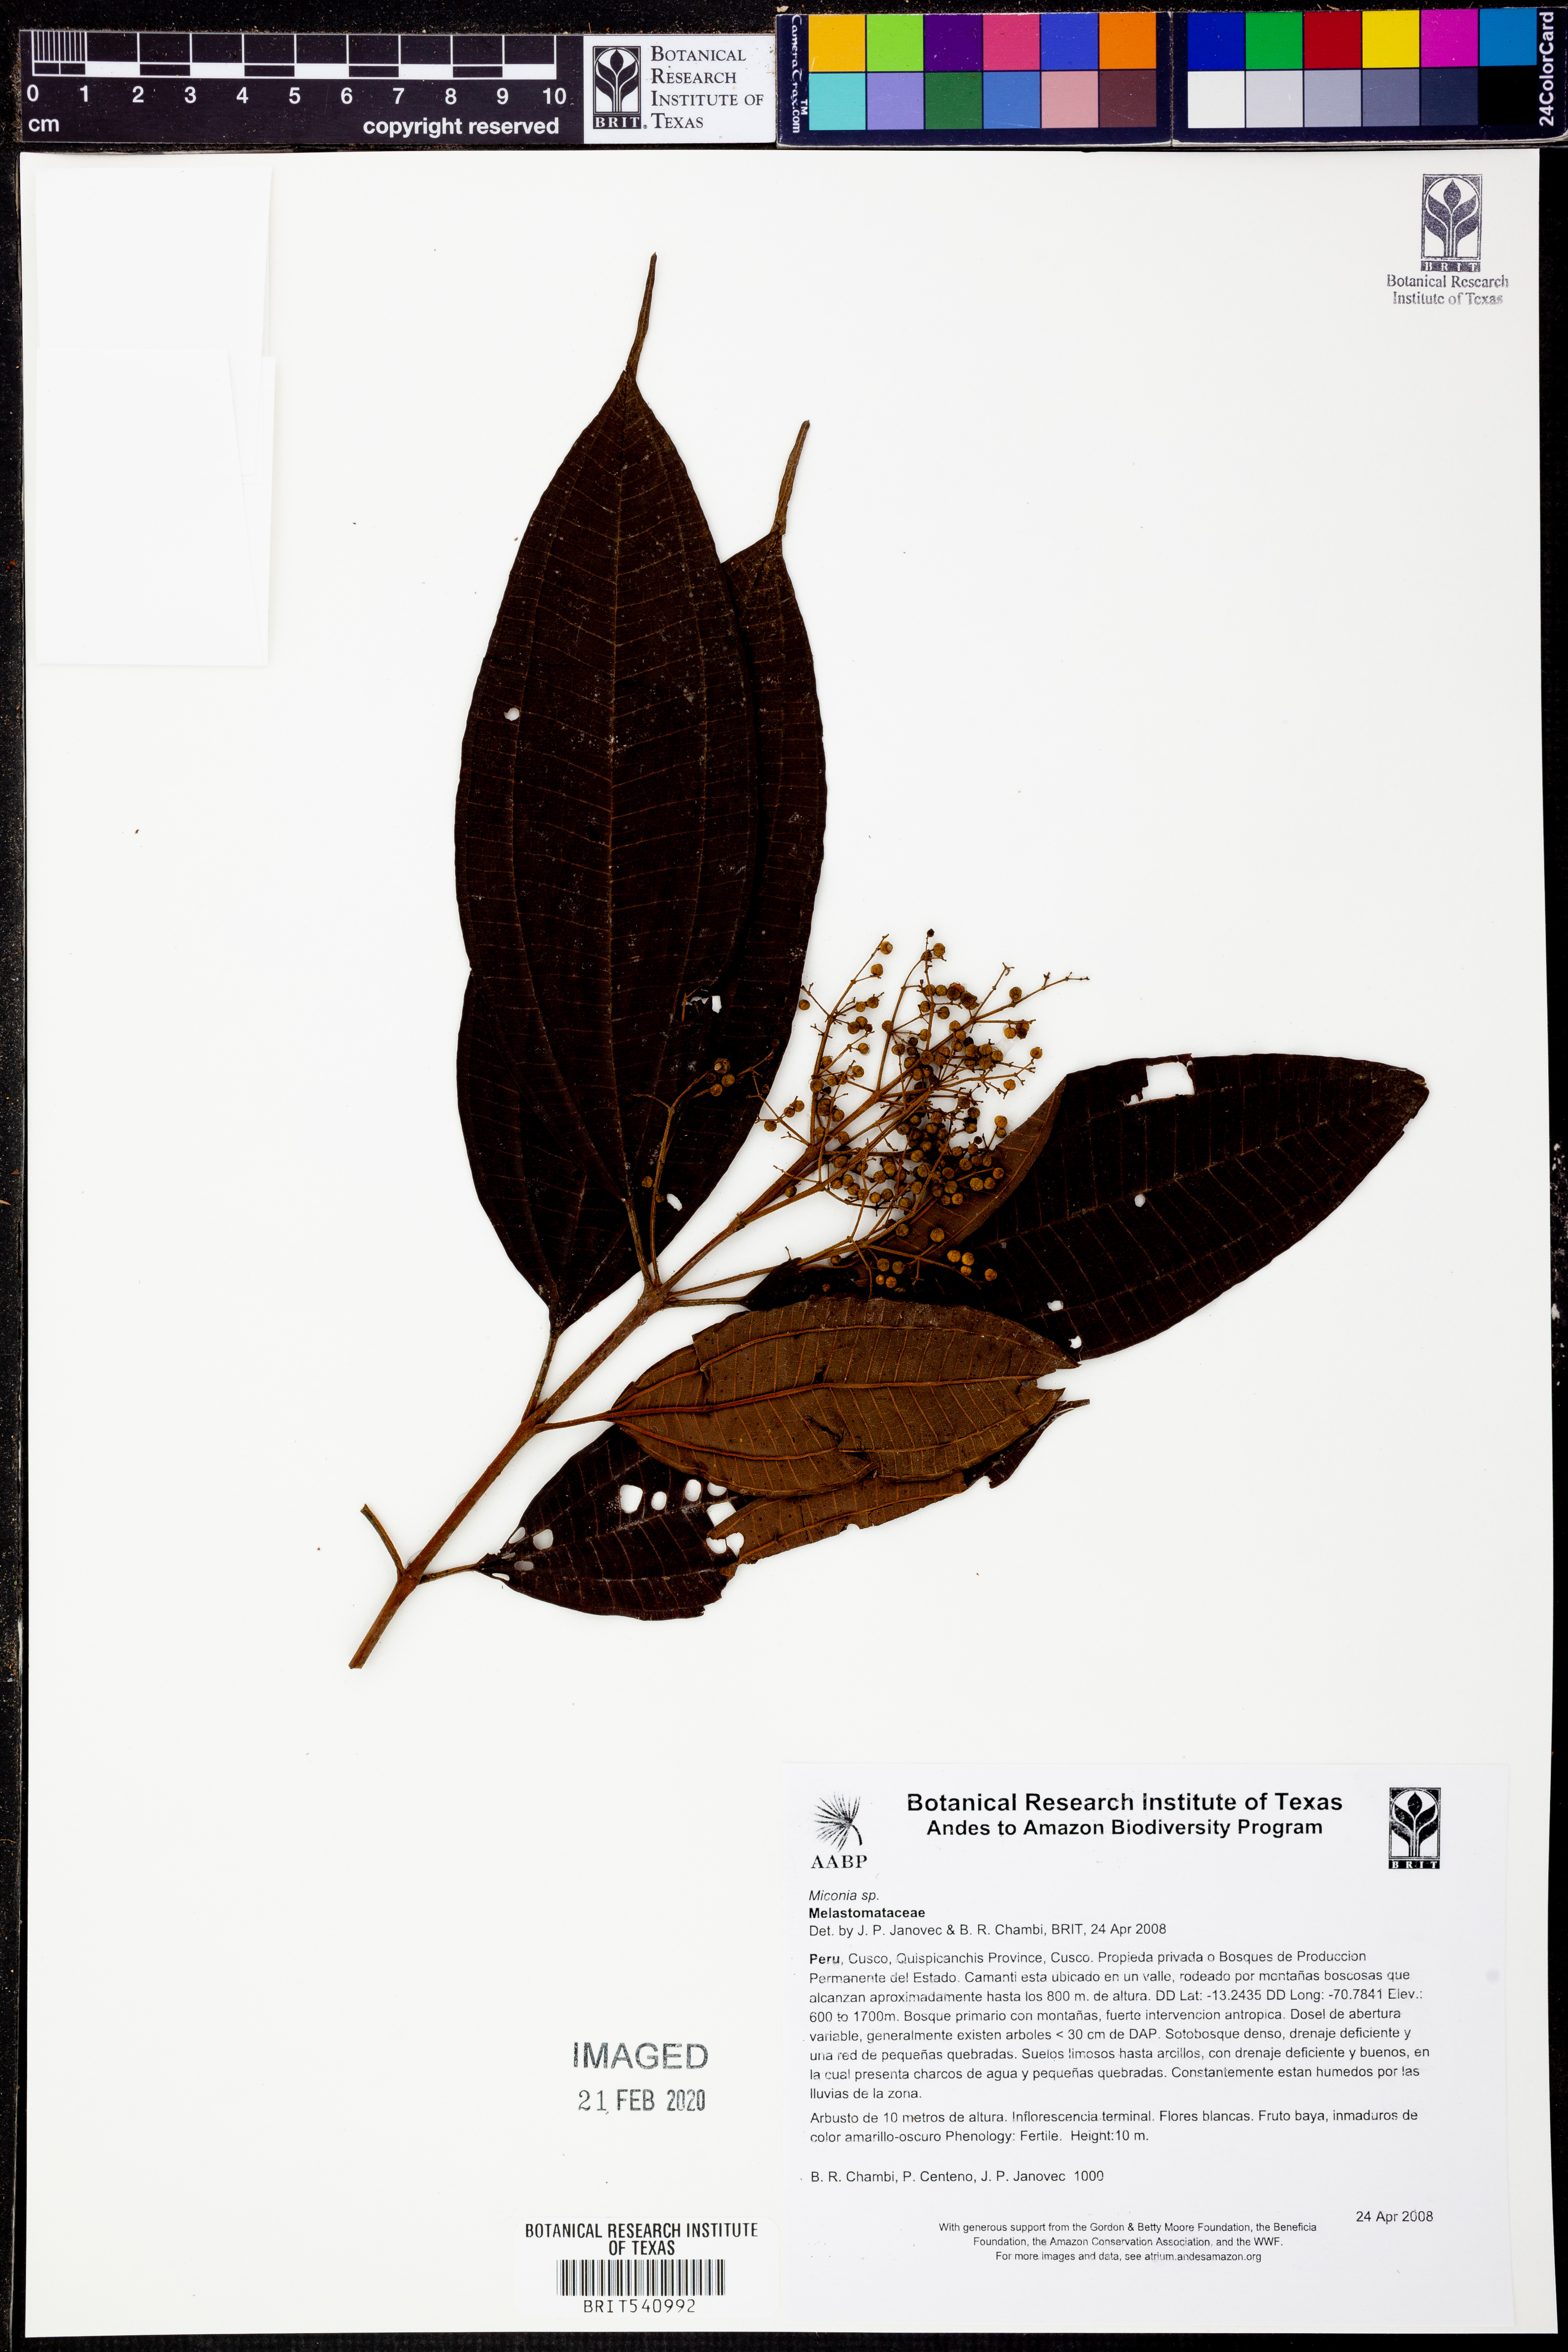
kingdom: Plantae
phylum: Tracheophyta
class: Magnoliopsida
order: Myrtales
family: Melastomataceae
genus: Miconia
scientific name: Miconia
